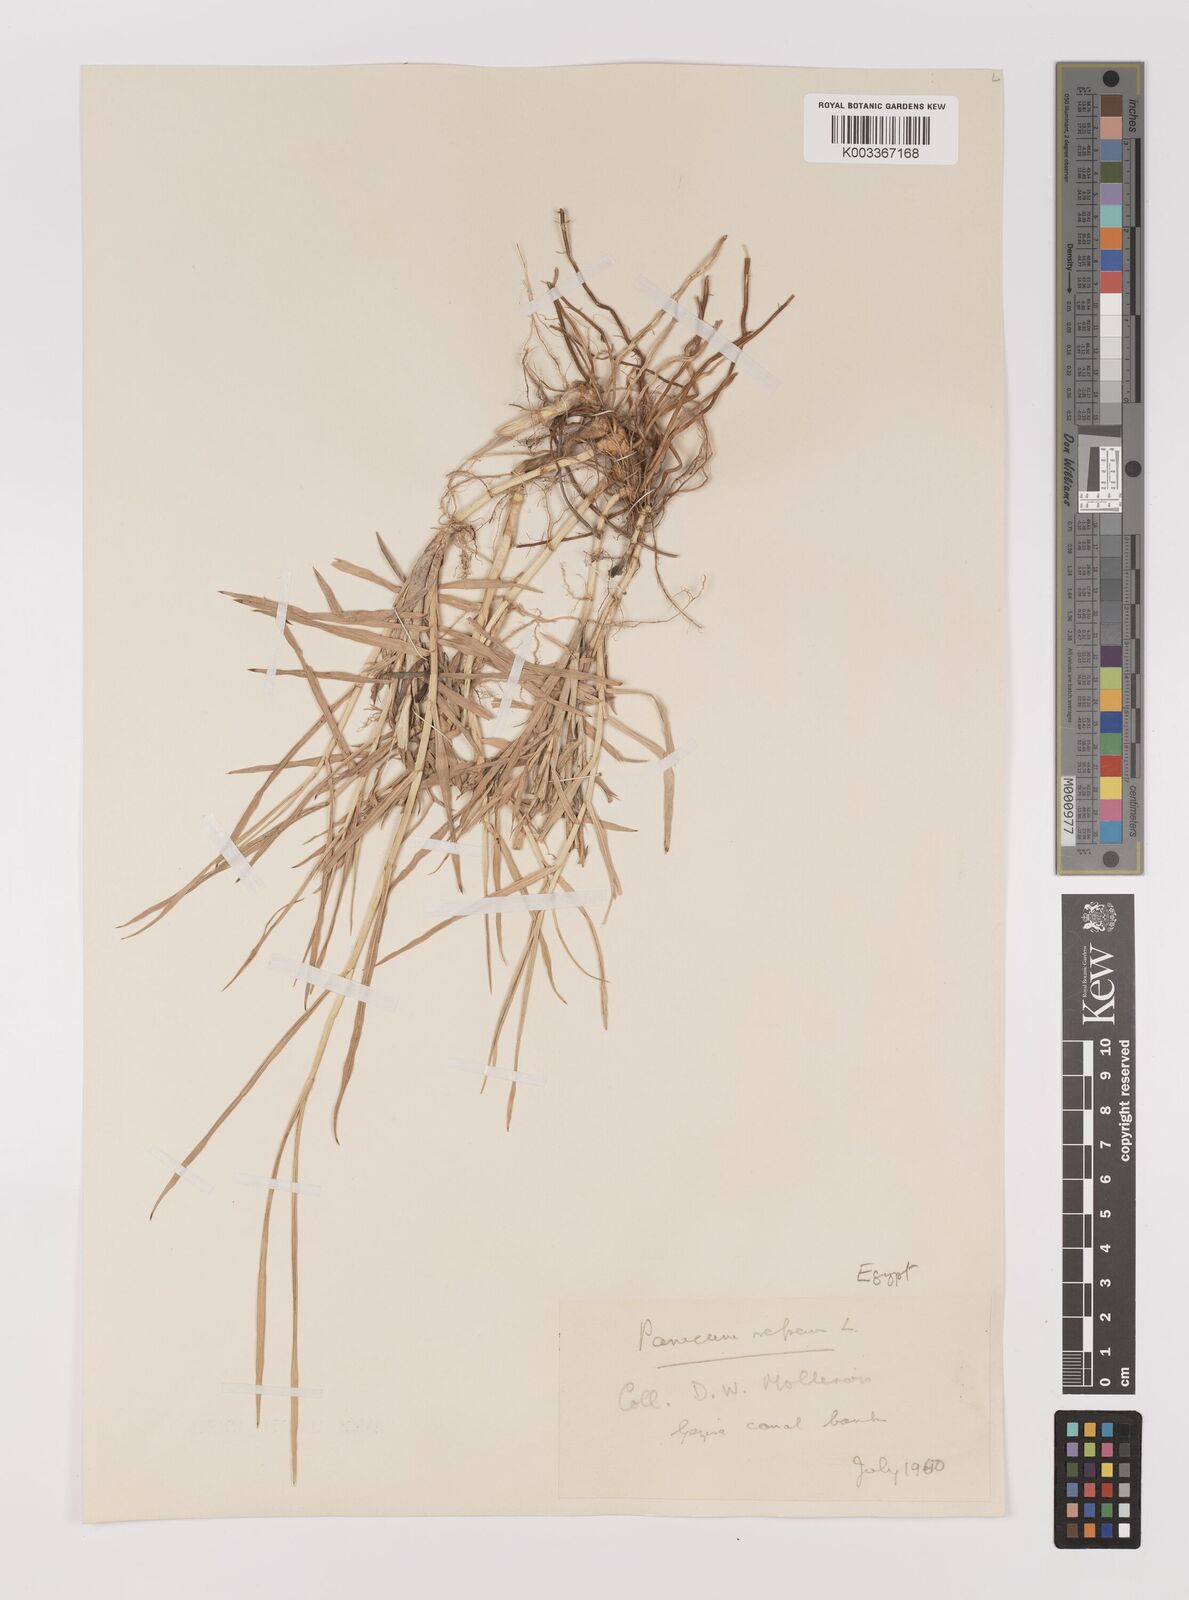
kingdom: Plantae
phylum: Tracheophyta
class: Liliopsida
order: Poales
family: Poaceae
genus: Panicum
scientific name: Panicum repens
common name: Torpedo grass
